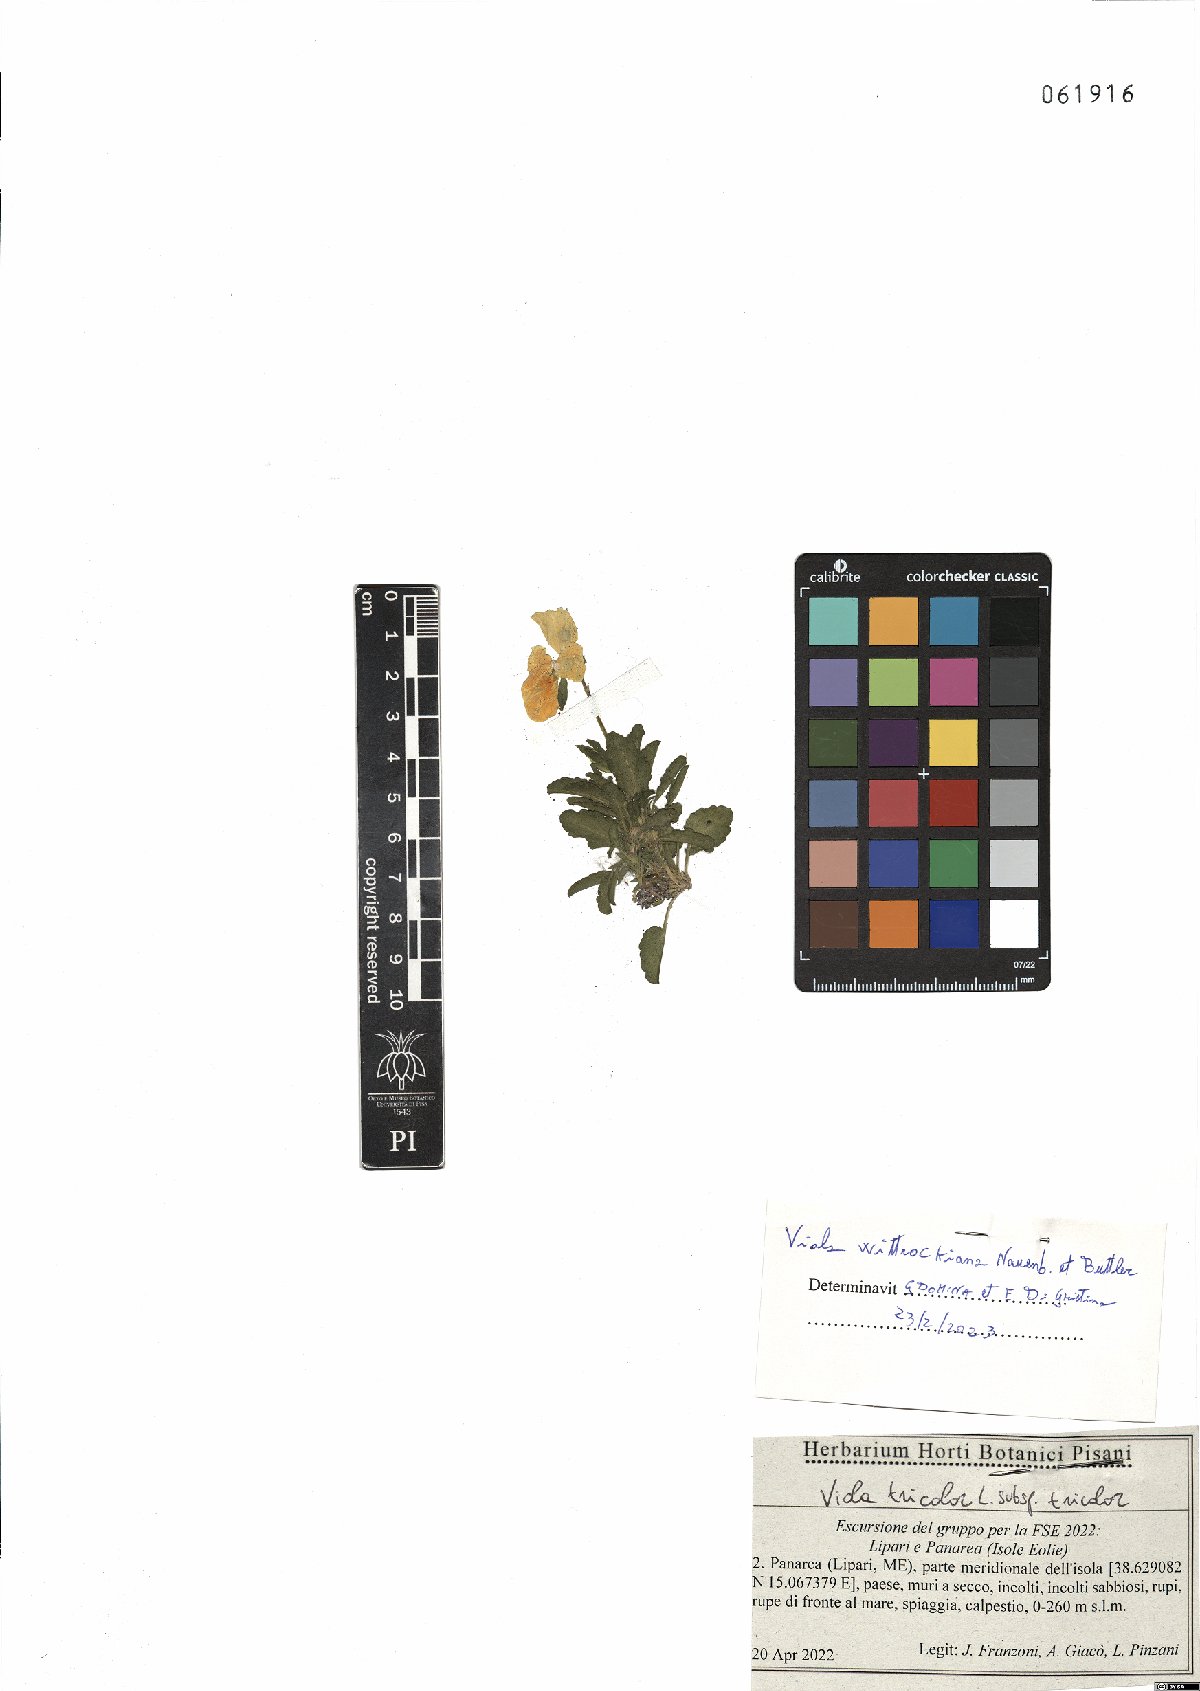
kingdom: Plantae
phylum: Tracheophyta
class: Magnoliopsida
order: Malpighiales
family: Violaceae
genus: Viola
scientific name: Viola wittrockiana
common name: Garden pansy
